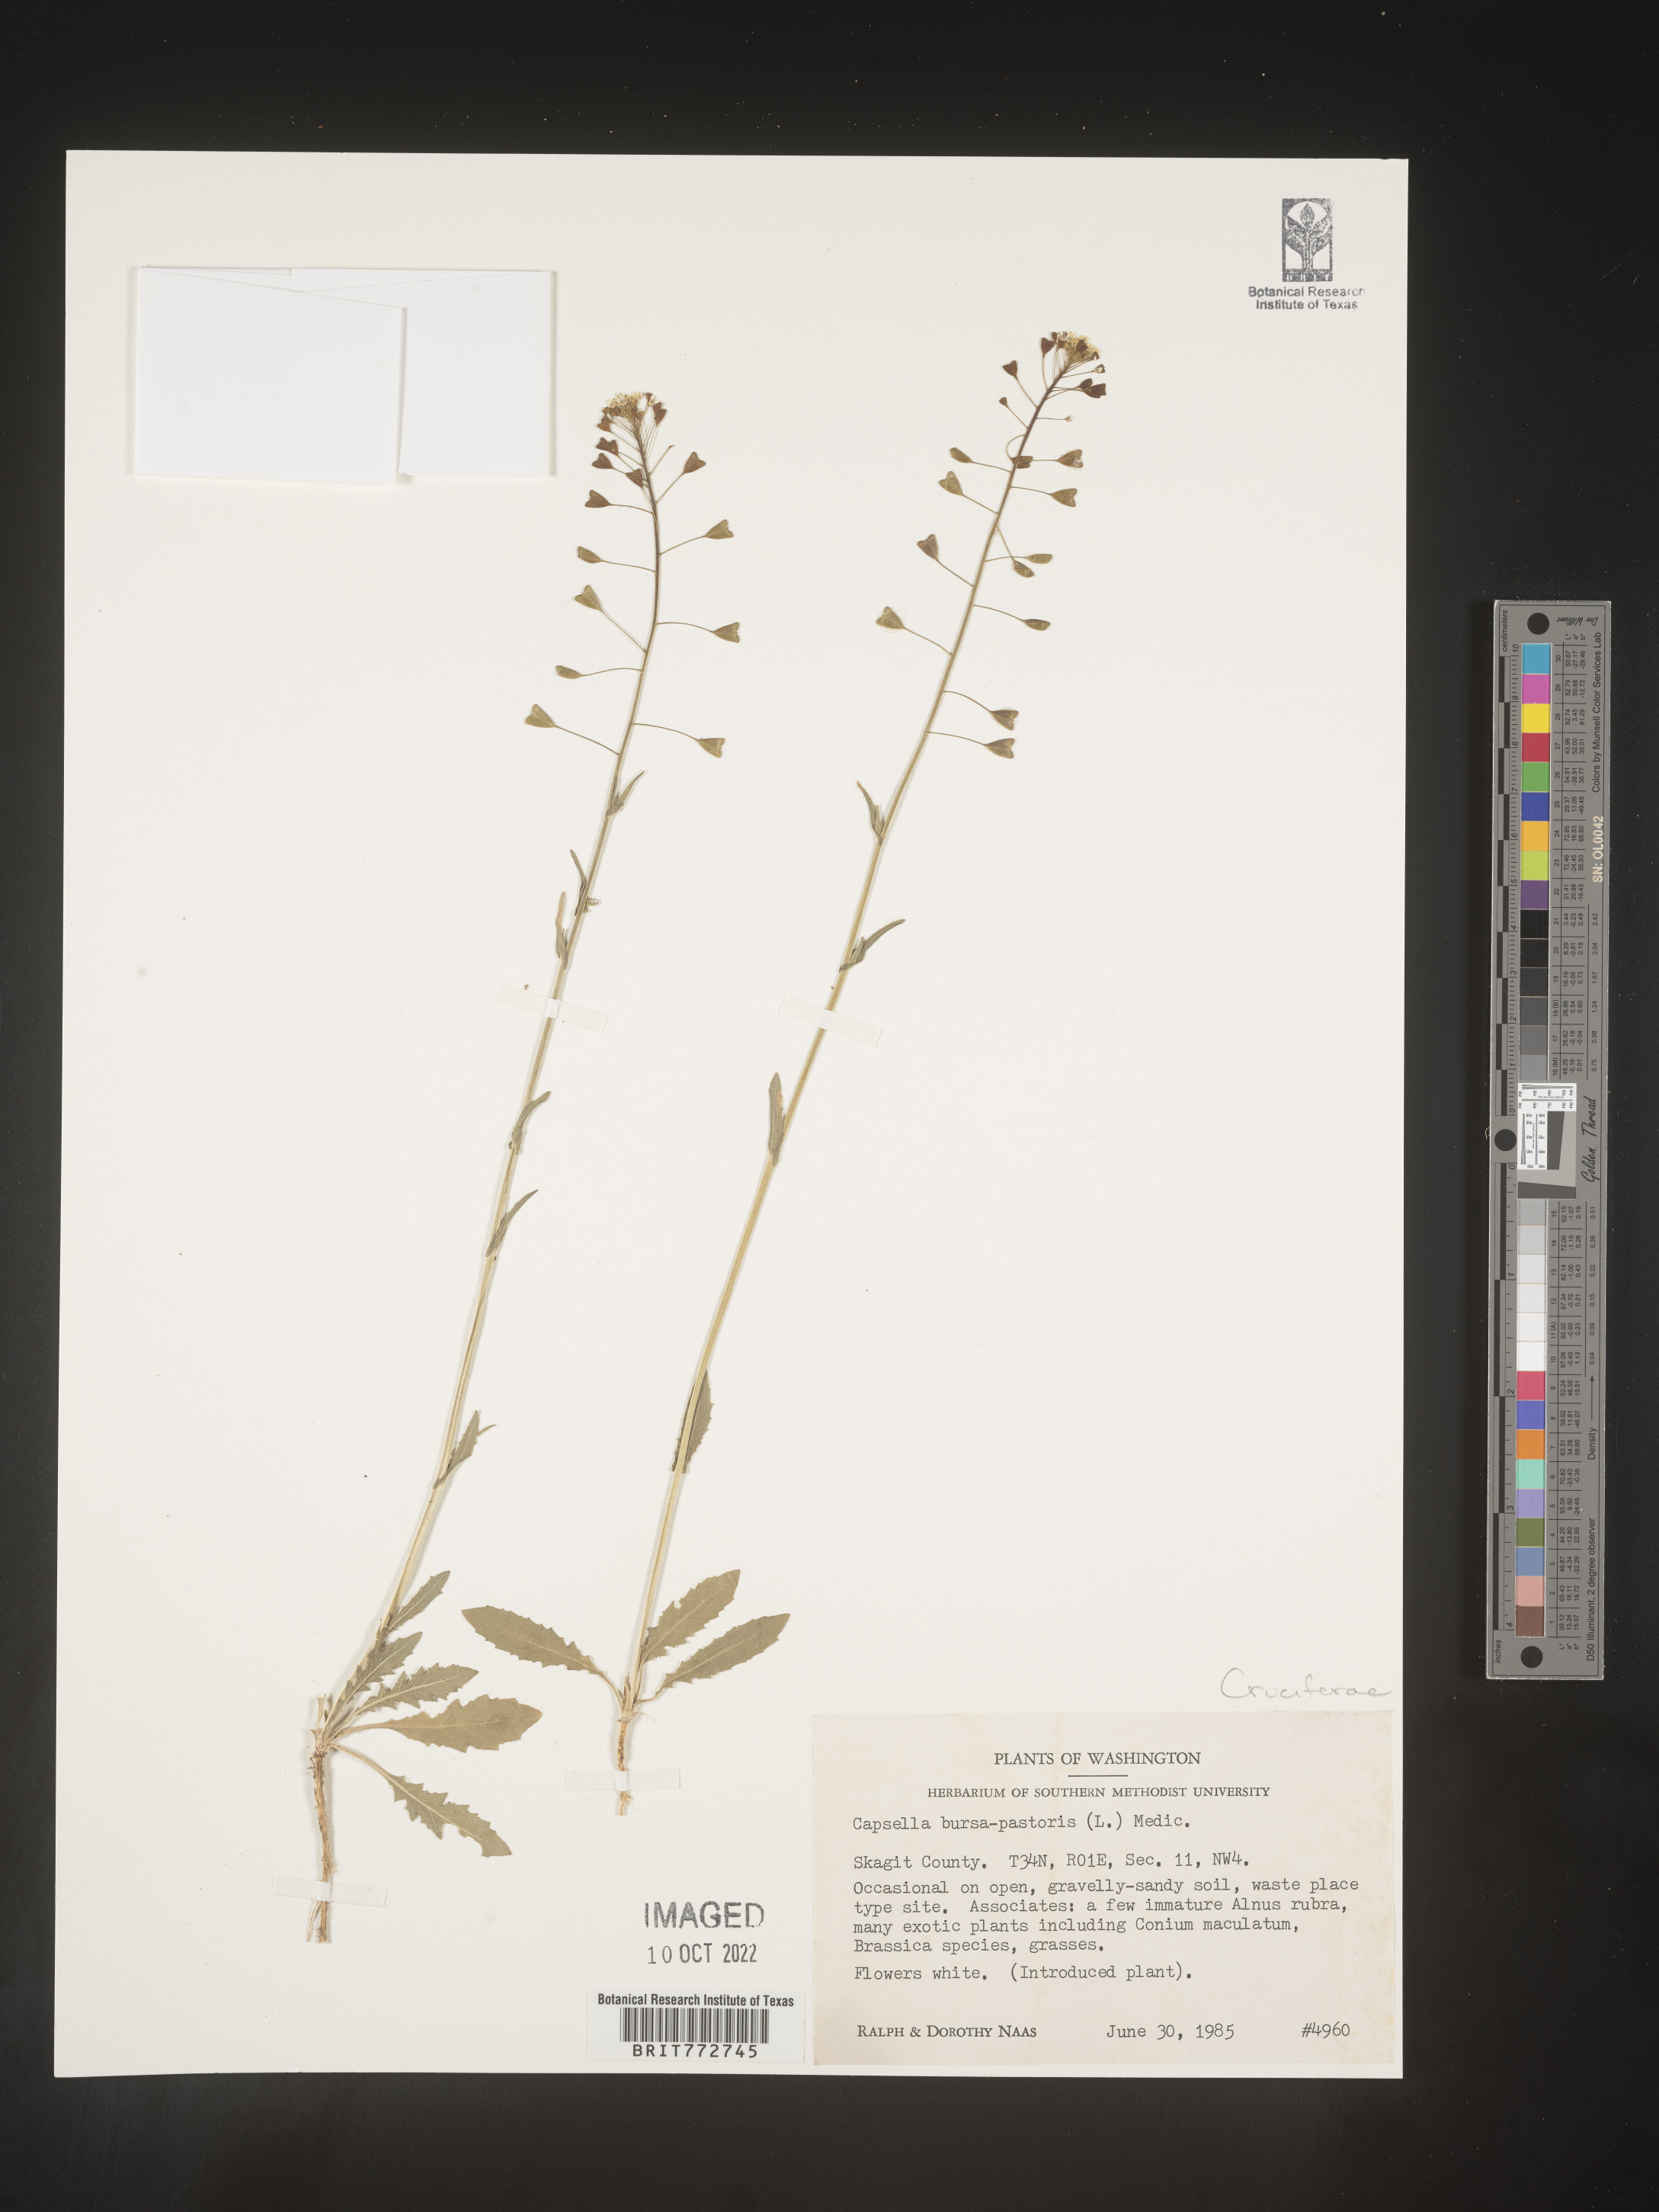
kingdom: Plantae
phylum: Tracheophyta
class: Magnoliopsida
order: Brassicales
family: Brassicaceae
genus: Capsella
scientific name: Capsella bursa-pastoris
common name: Shepherd's purse
